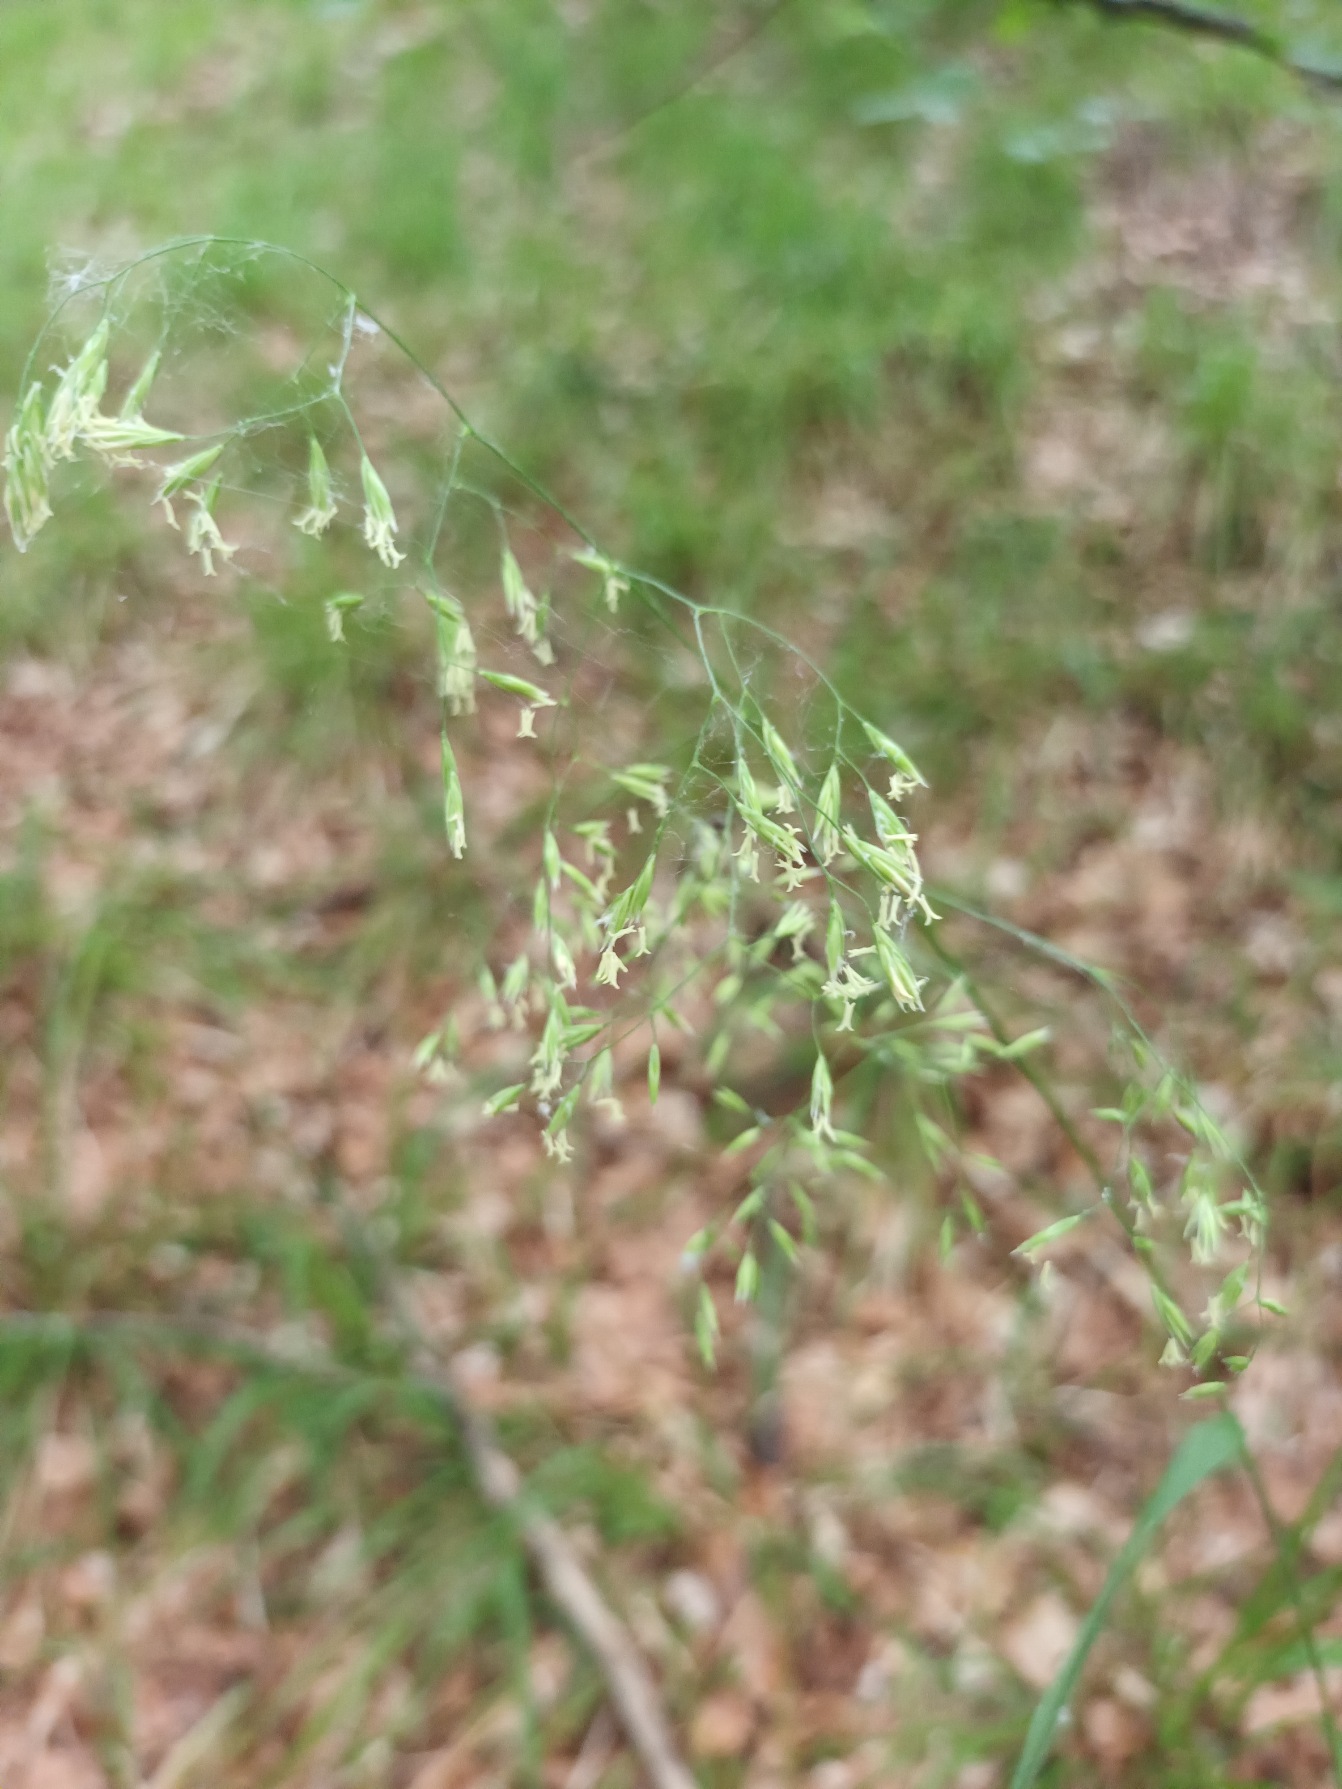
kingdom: Plantae
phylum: Tracheophyta
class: Liliopsida
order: Poales
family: Poaceae
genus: Festuca
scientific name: Festuca altissima
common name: Skov-svingel
